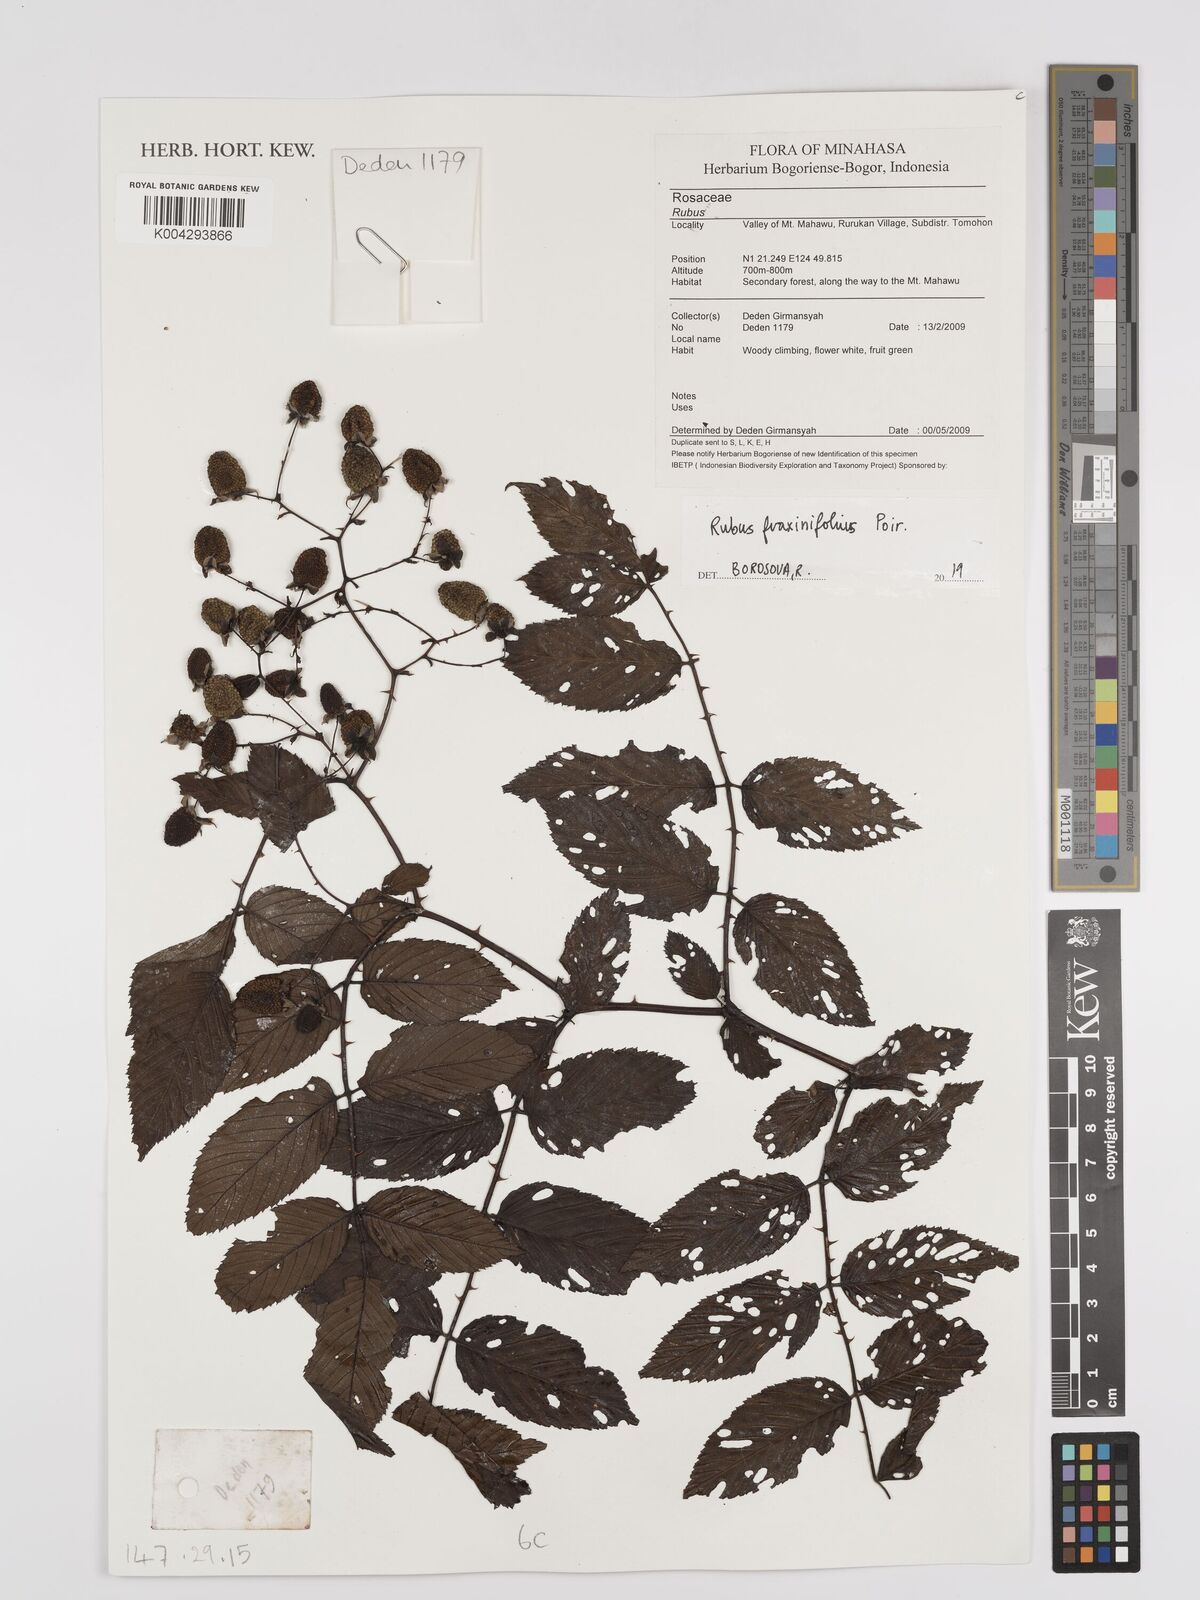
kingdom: Plantae
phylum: Tracheophyta
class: Magnoliopsida
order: Rosales
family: Rosaceae
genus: Rubus
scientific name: Rubus fraxinifolius
